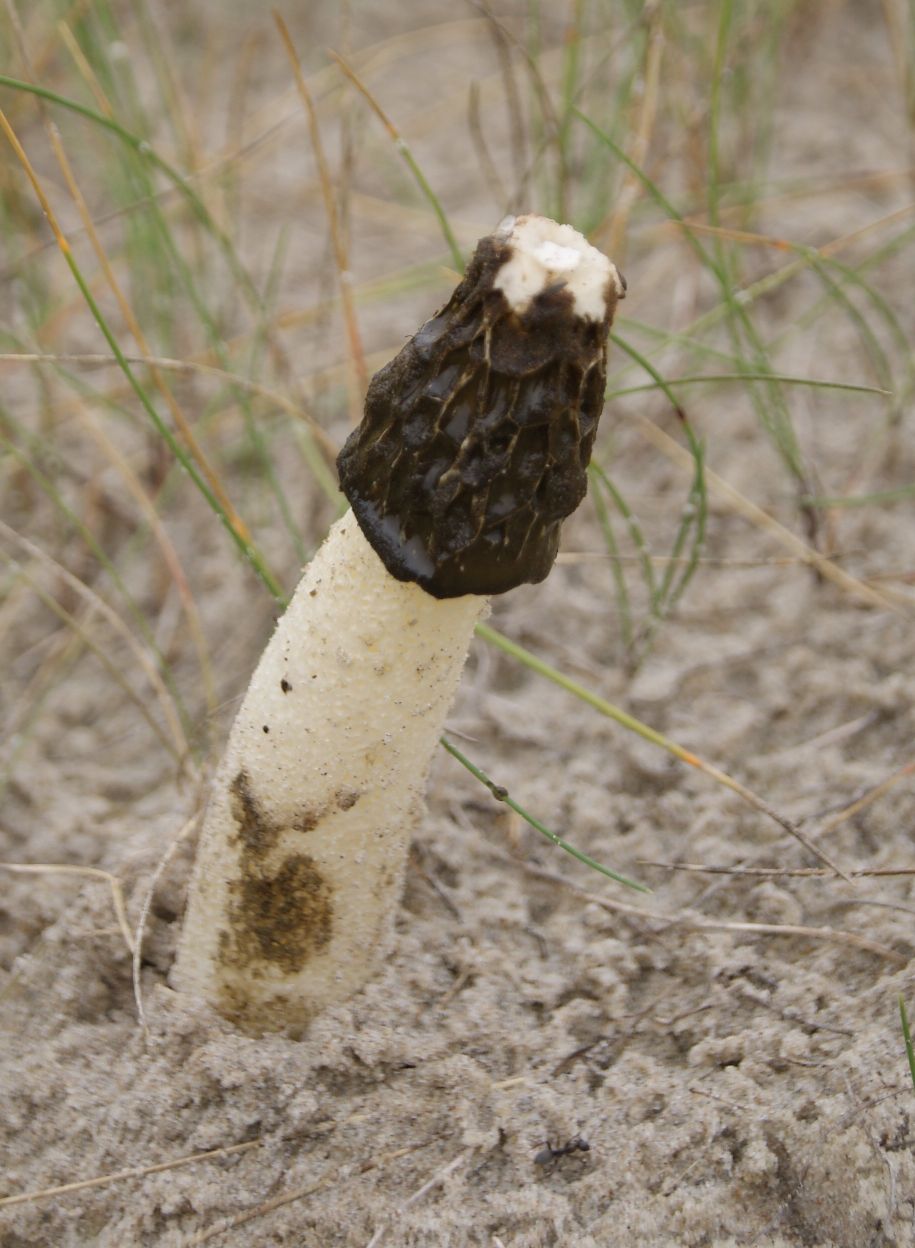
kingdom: Fungi
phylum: Basidiomycota
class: Agaricomycetes
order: Phallales
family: Phallaceae
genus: Phallus
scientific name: Phallus hadriani
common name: sand-stinksvamp
